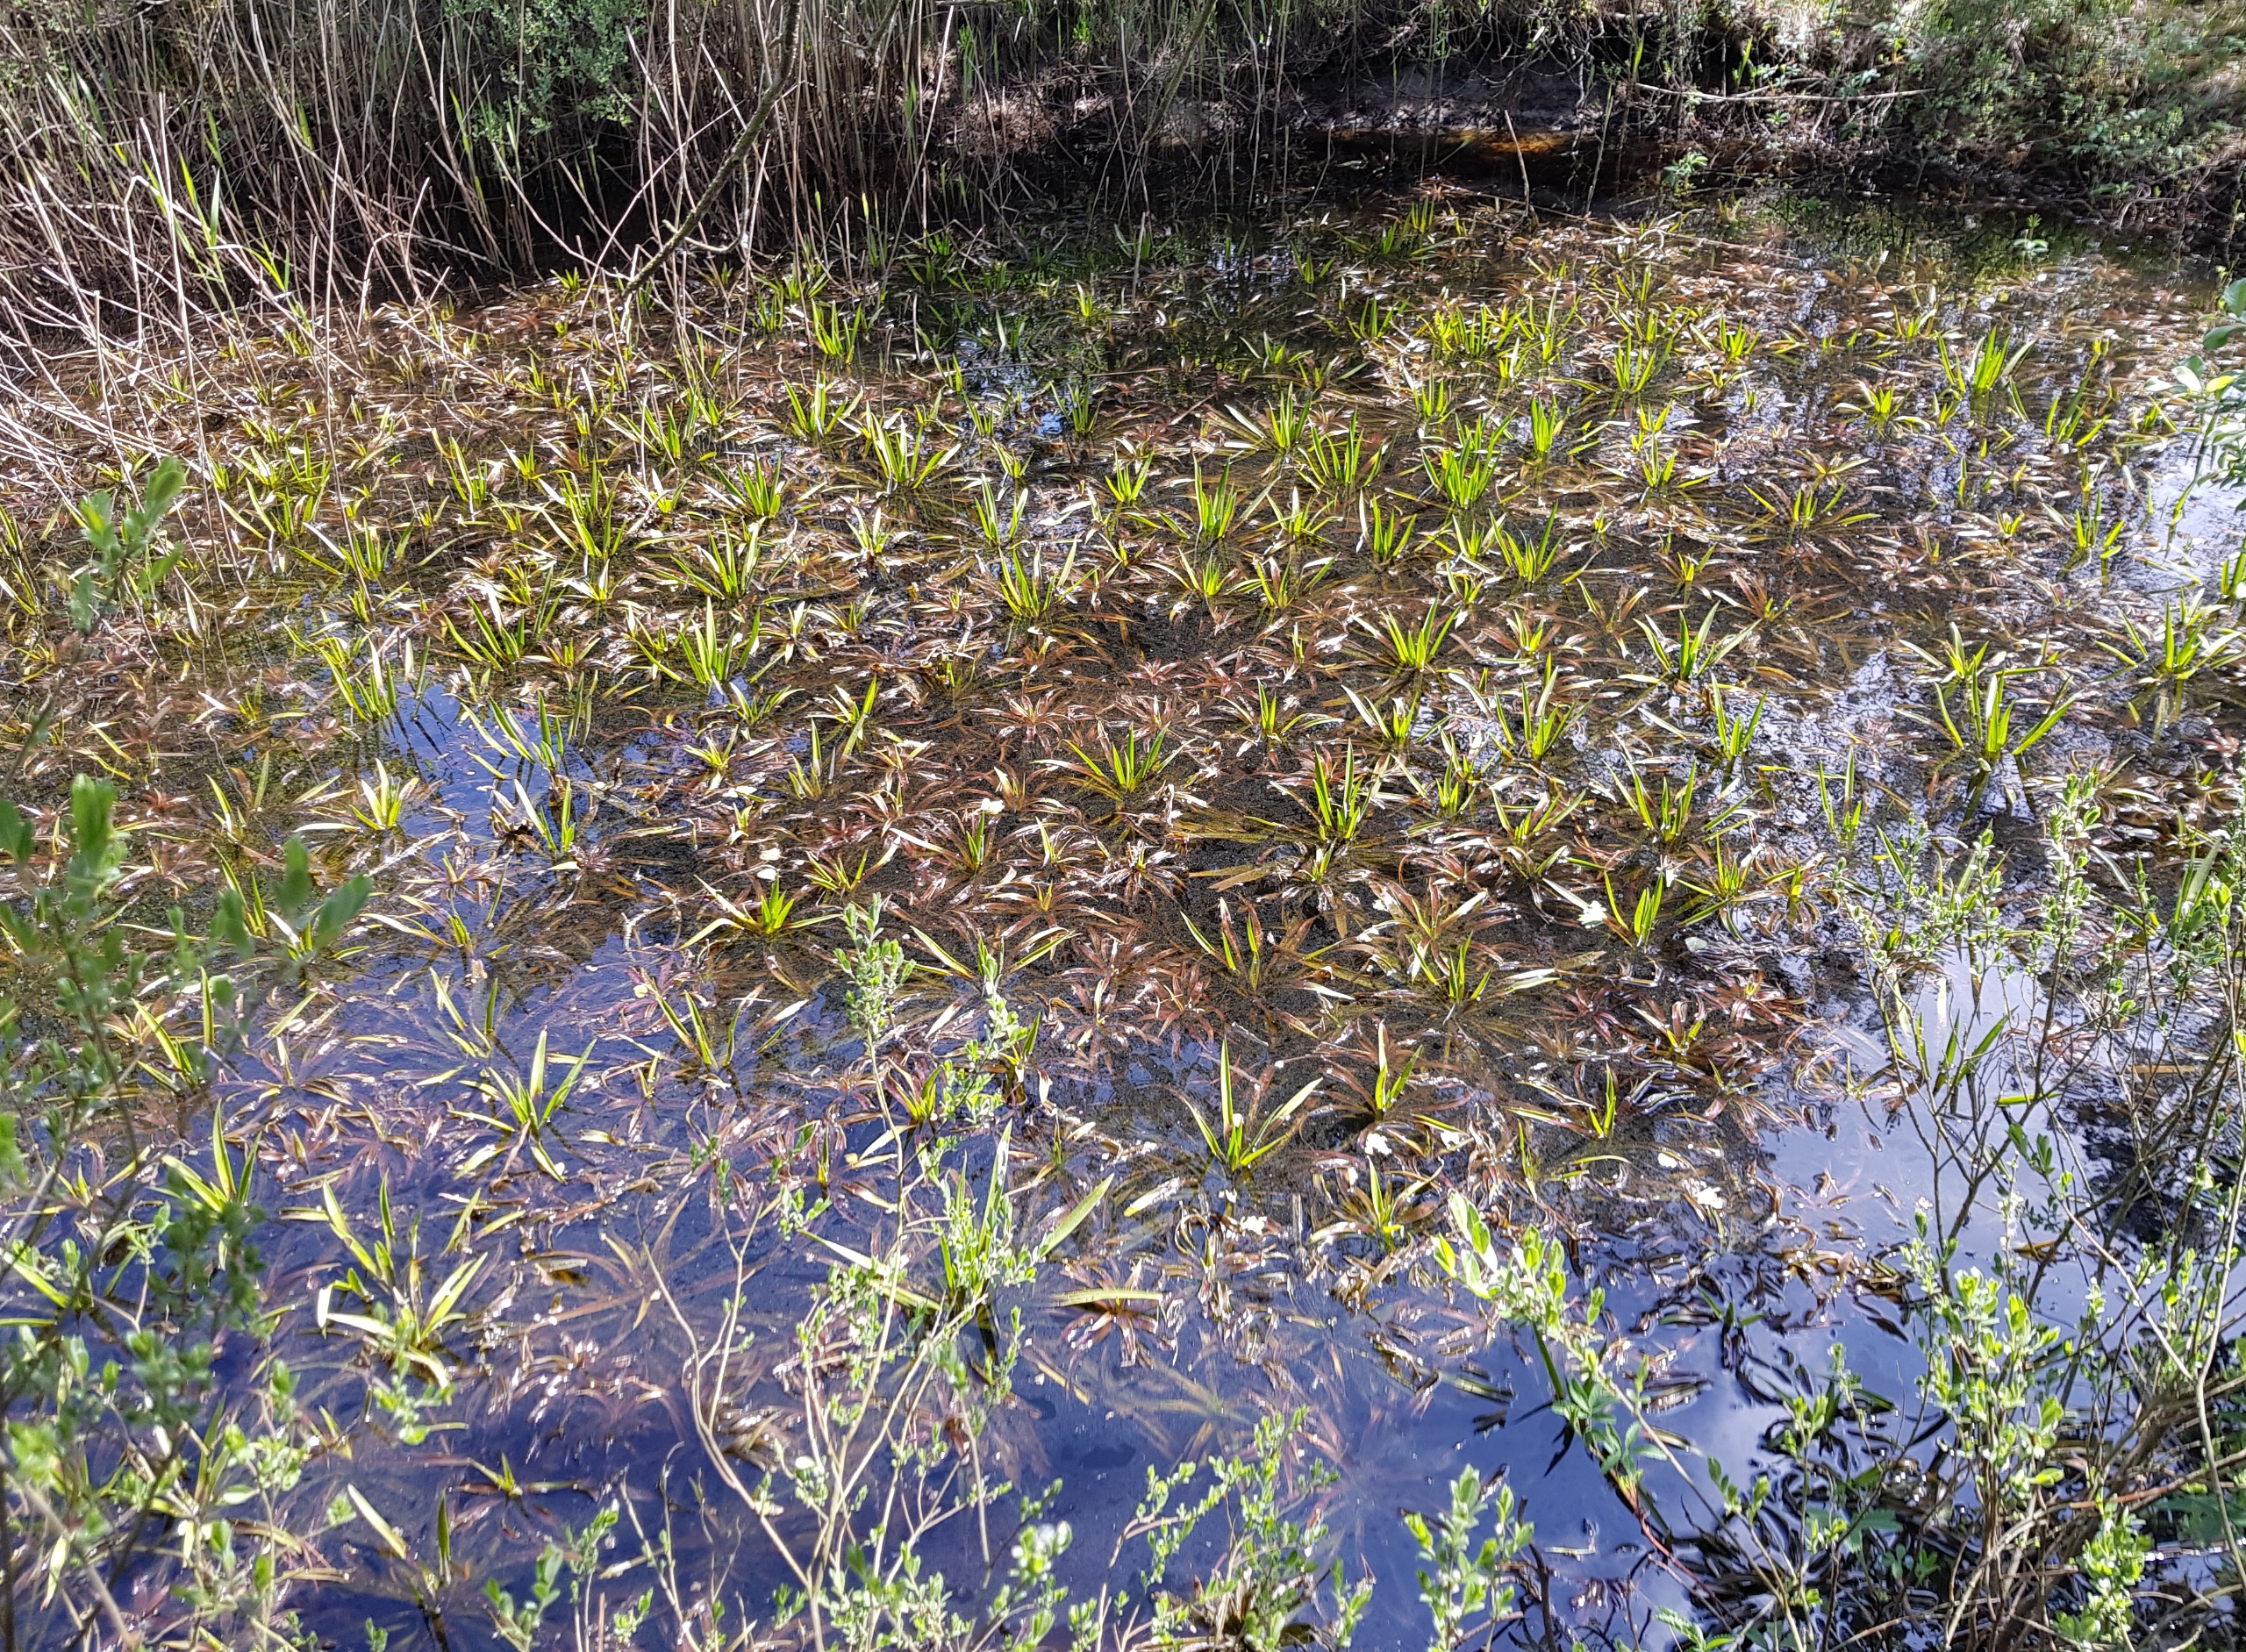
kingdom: Plantae
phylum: Tracheophyta
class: Liliopsida
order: Alismatales
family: Hydrocharitaceae
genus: Stratiotes
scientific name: Stratiotes aloides
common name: Krebseklo
